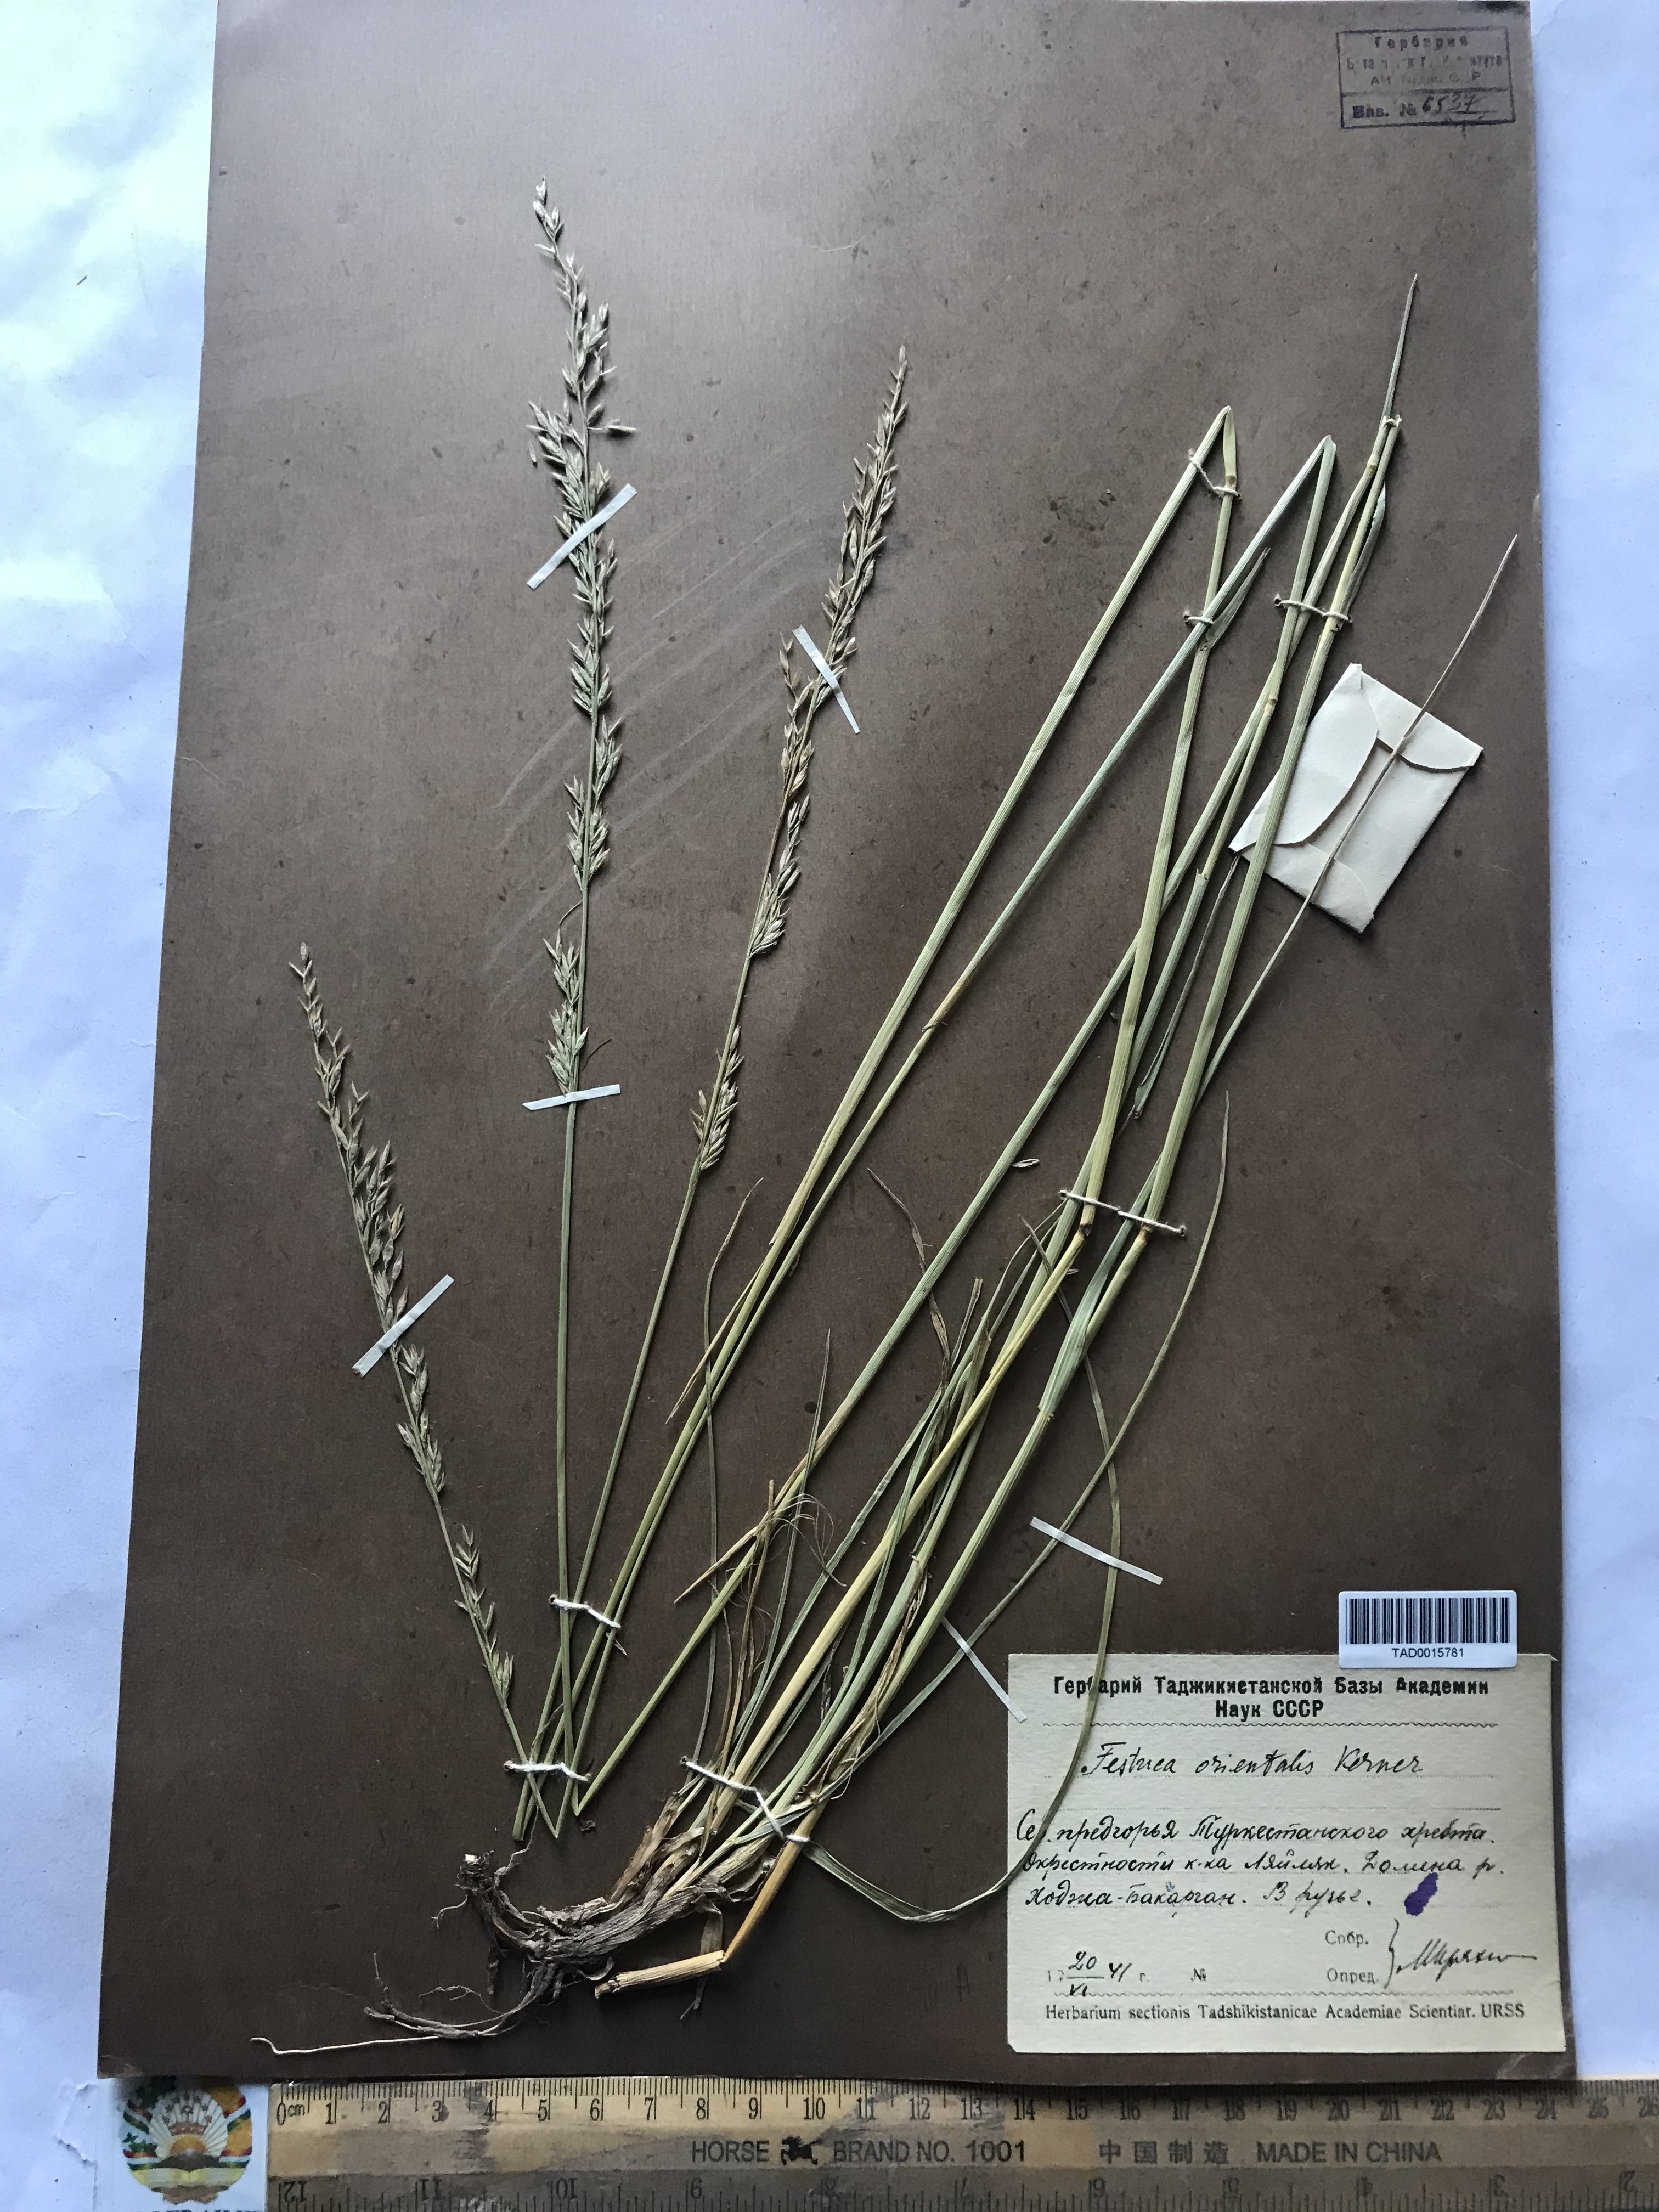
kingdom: Plantae
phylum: Tracheophyta
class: Liliopsida
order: Poales
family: Poaceae
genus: Lolium
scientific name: Lolium arundinaceum
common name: Reed fescue
